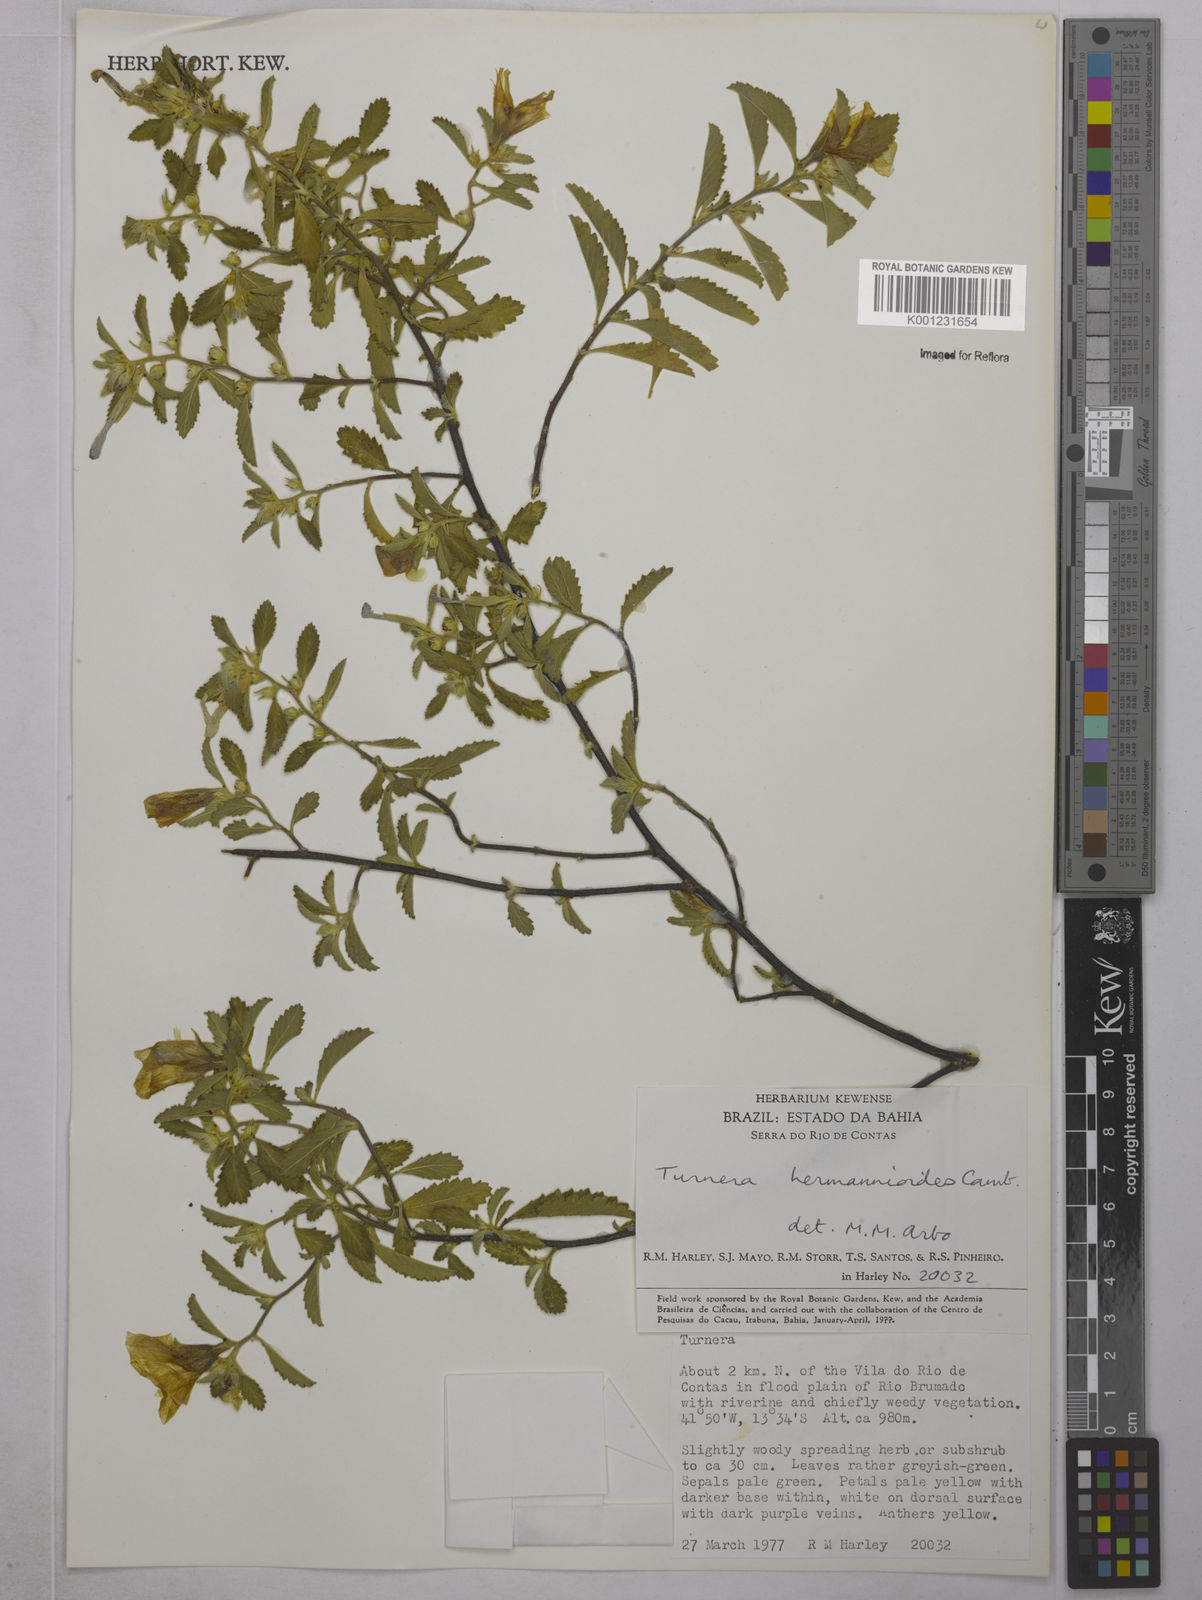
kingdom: Plantae
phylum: Tracheophyta
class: Magnoliopsida
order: Malpighiales
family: Turneraceae
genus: Turnera
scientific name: Turnera hermannioides
